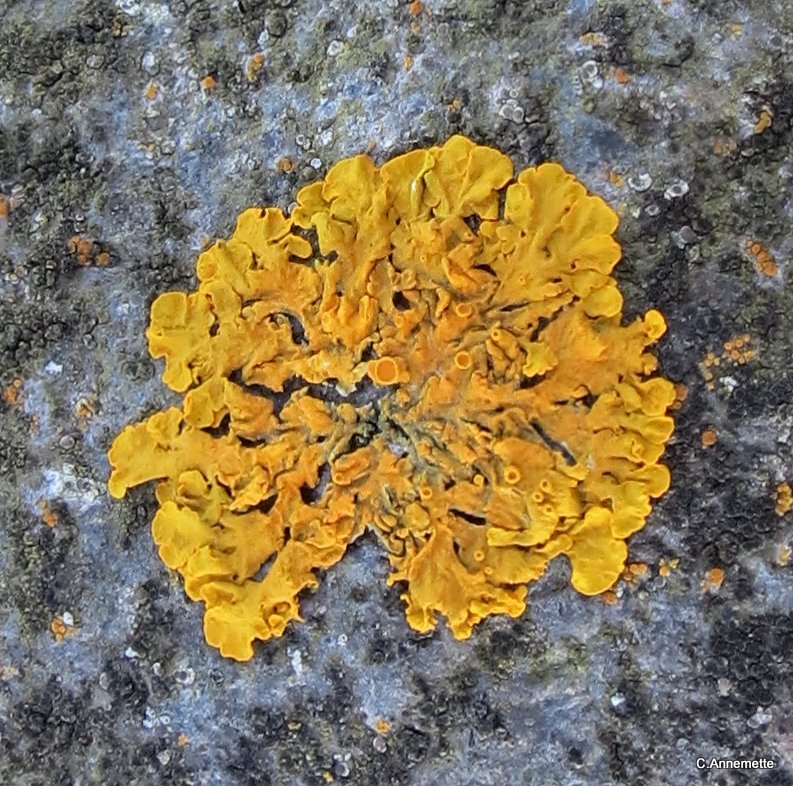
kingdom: Fungi
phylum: Ascomycota
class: Lecanoromycetes
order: Teloschistales
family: Teloschistaceae
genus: Xanthoria
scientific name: Xanthoria parietina
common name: almindelig væggelav
